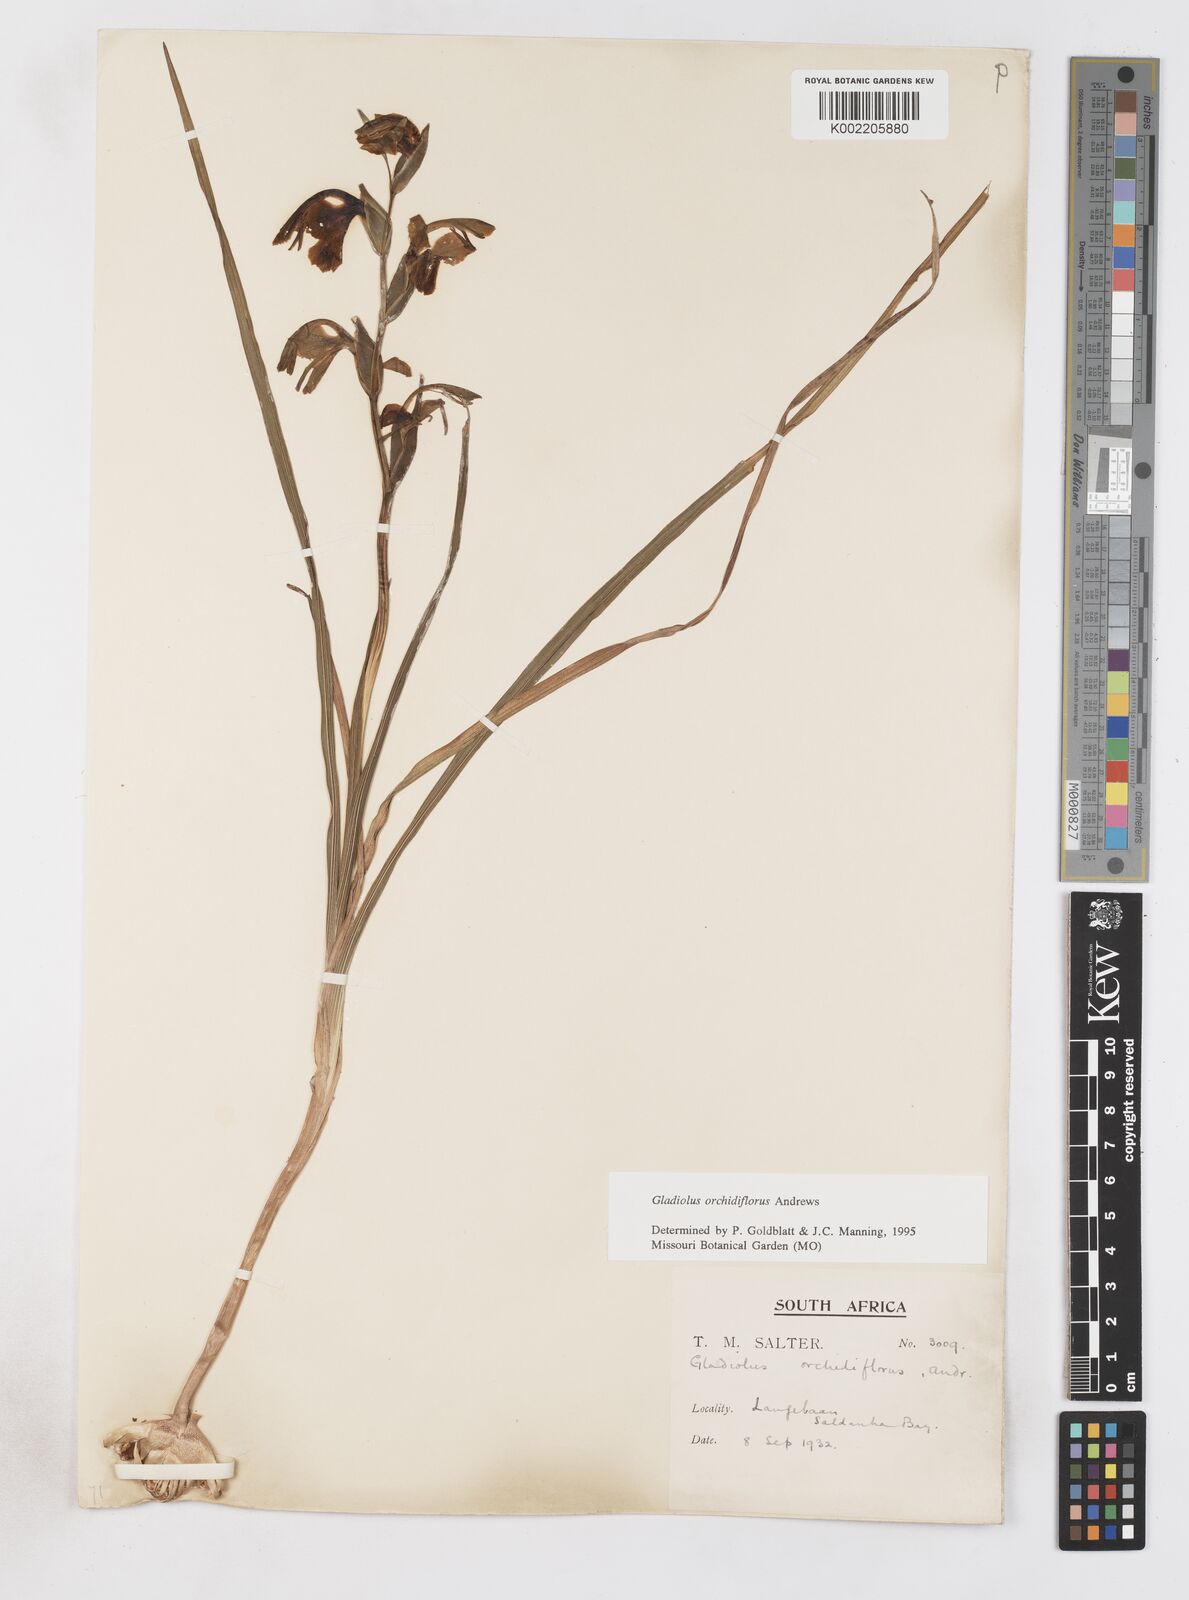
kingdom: Plantae
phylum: Tracheophyta
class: Liliopsida
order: Asparagales
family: Iridaceae
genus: Gladiolus
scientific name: Gladiolus orchidiflorus
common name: Gray kalkoentjie
